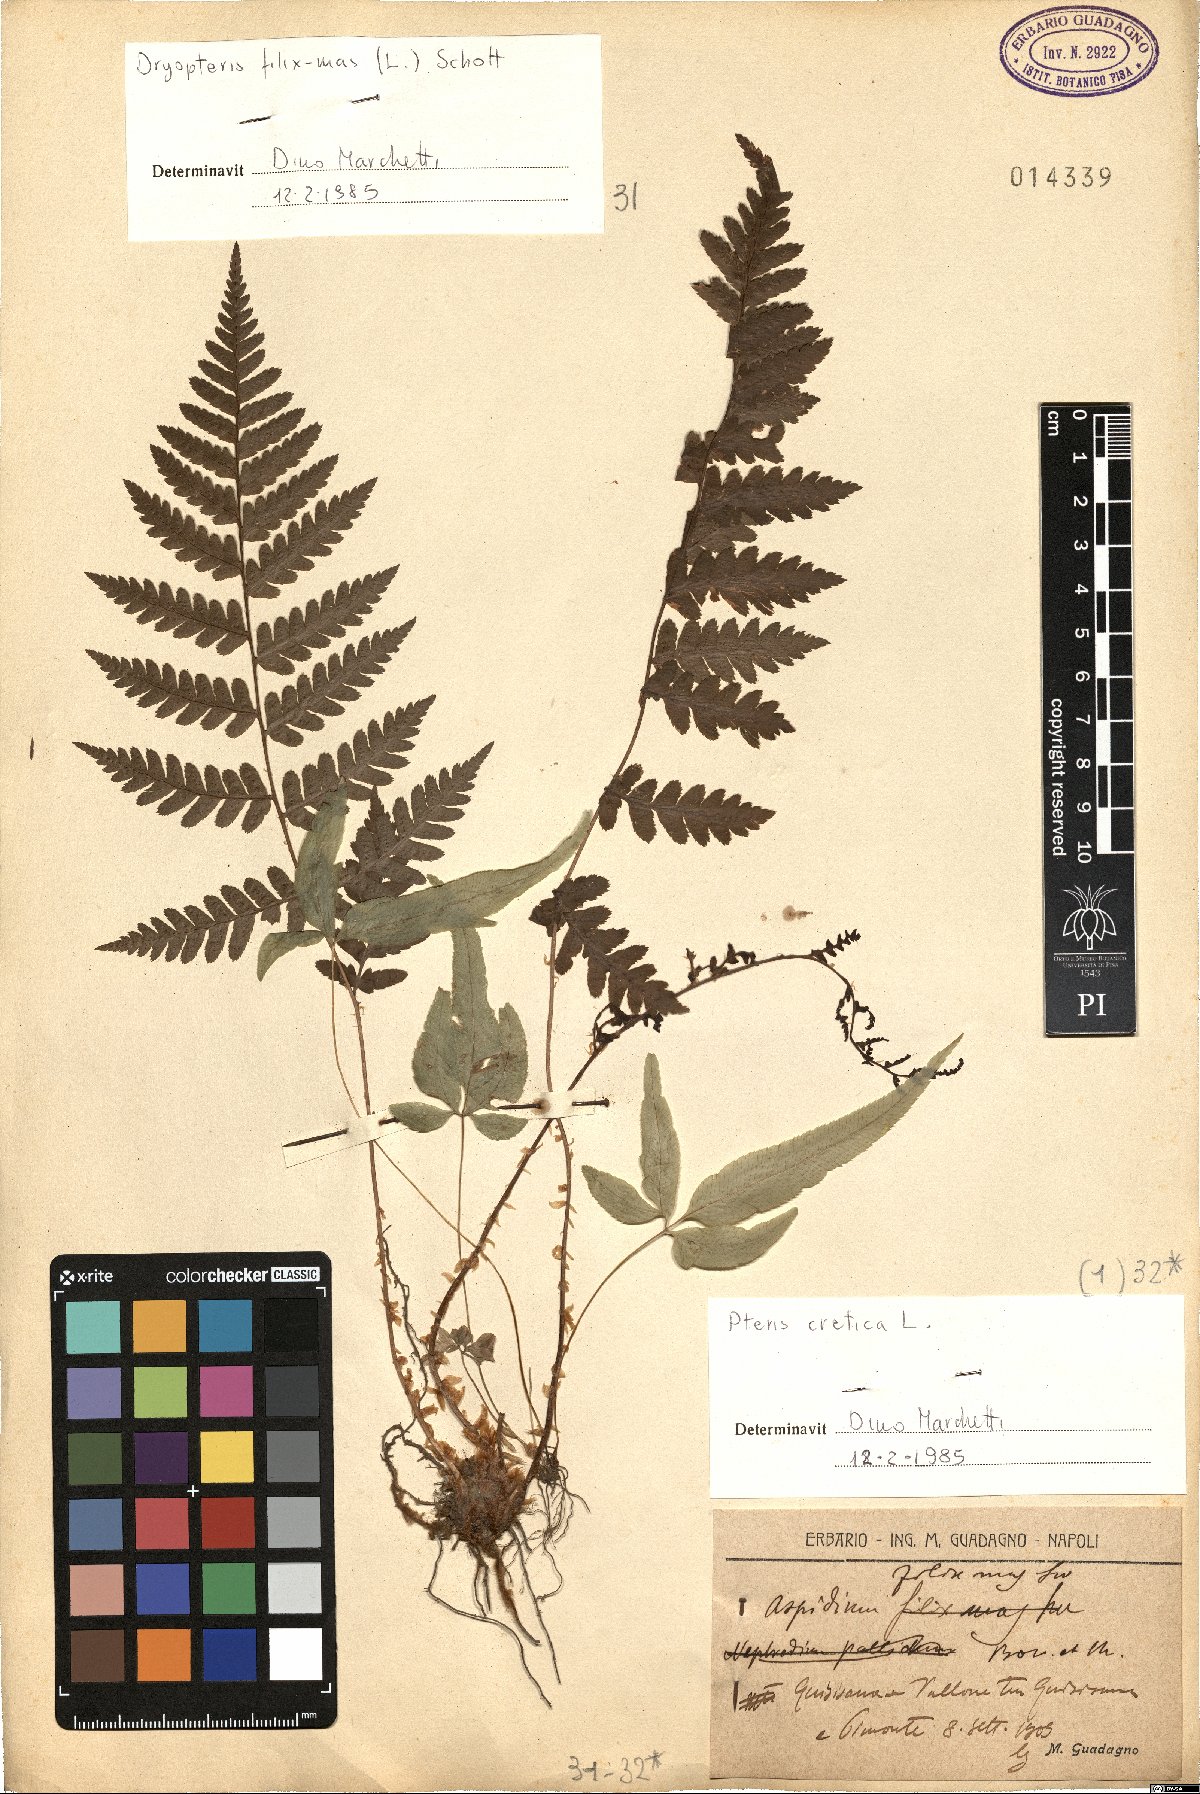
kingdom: Plantae
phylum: Tracheophyta
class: Polypodiopsida
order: Polypodiales
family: Dryopteridaceae
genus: Dryopteris
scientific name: Dryopteris filix-mas
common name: Male fern
